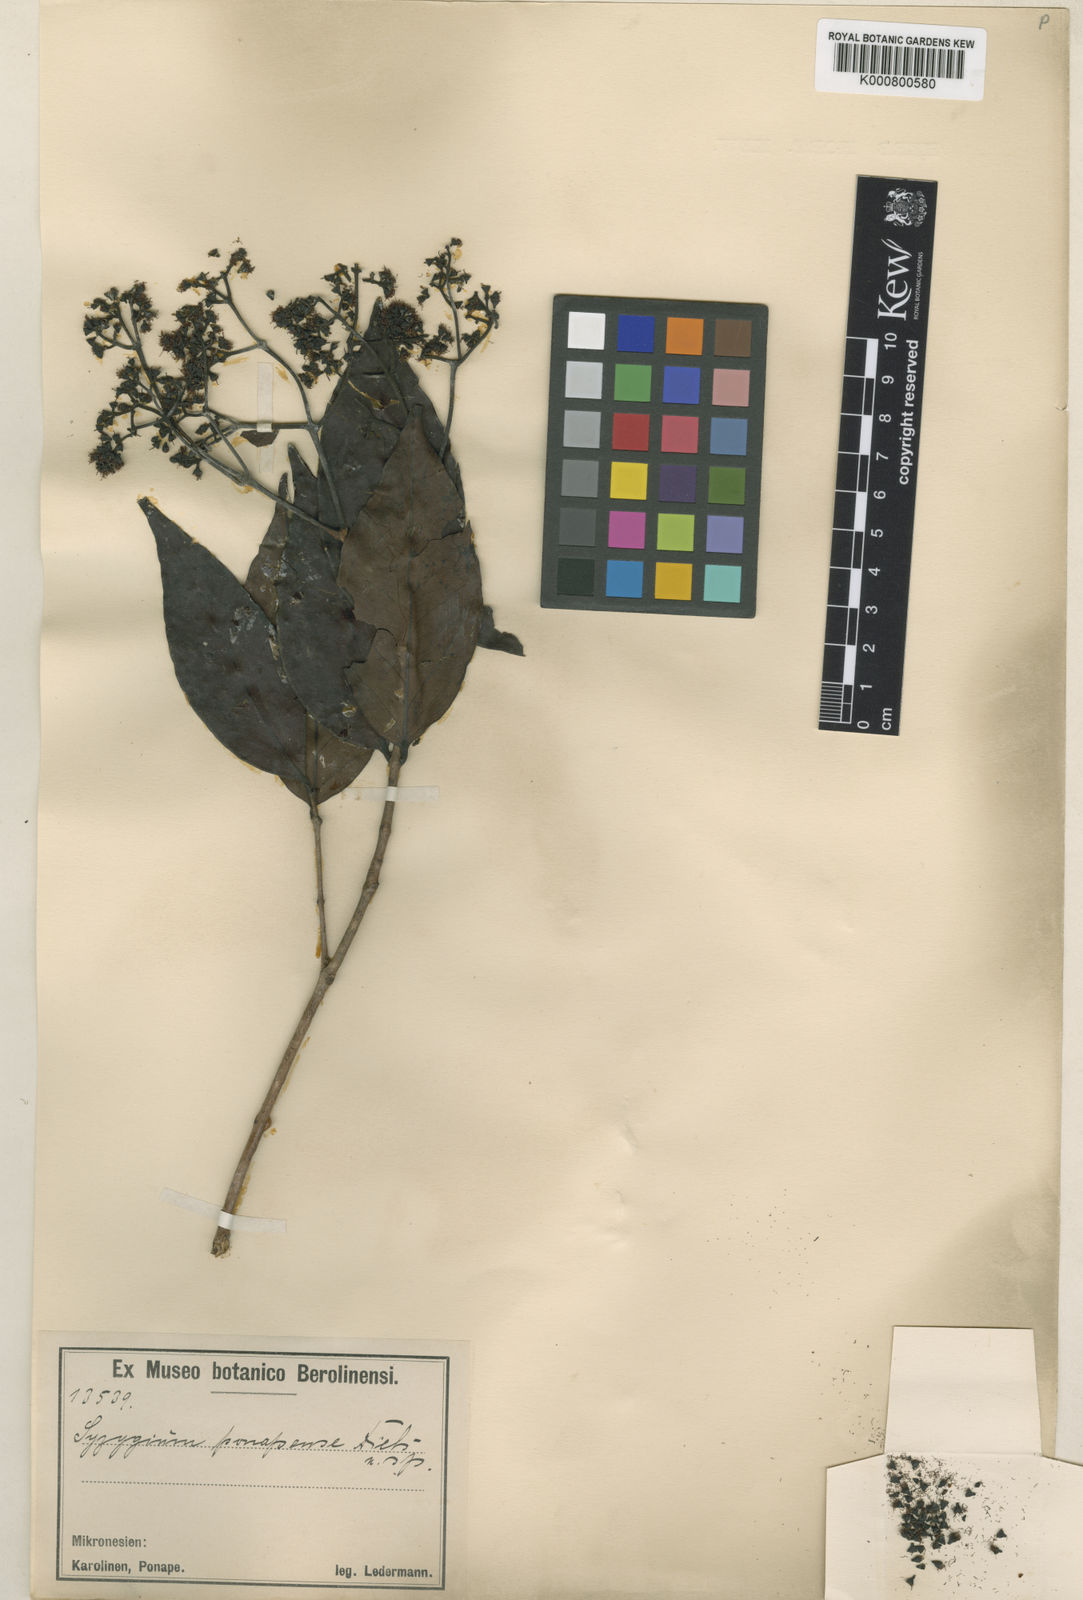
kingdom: Plantae
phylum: Tracheophyta
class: Magnoliopsida
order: Myrtales
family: Myrtaceae
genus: Syzygium
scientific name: Syzygium carolinense
